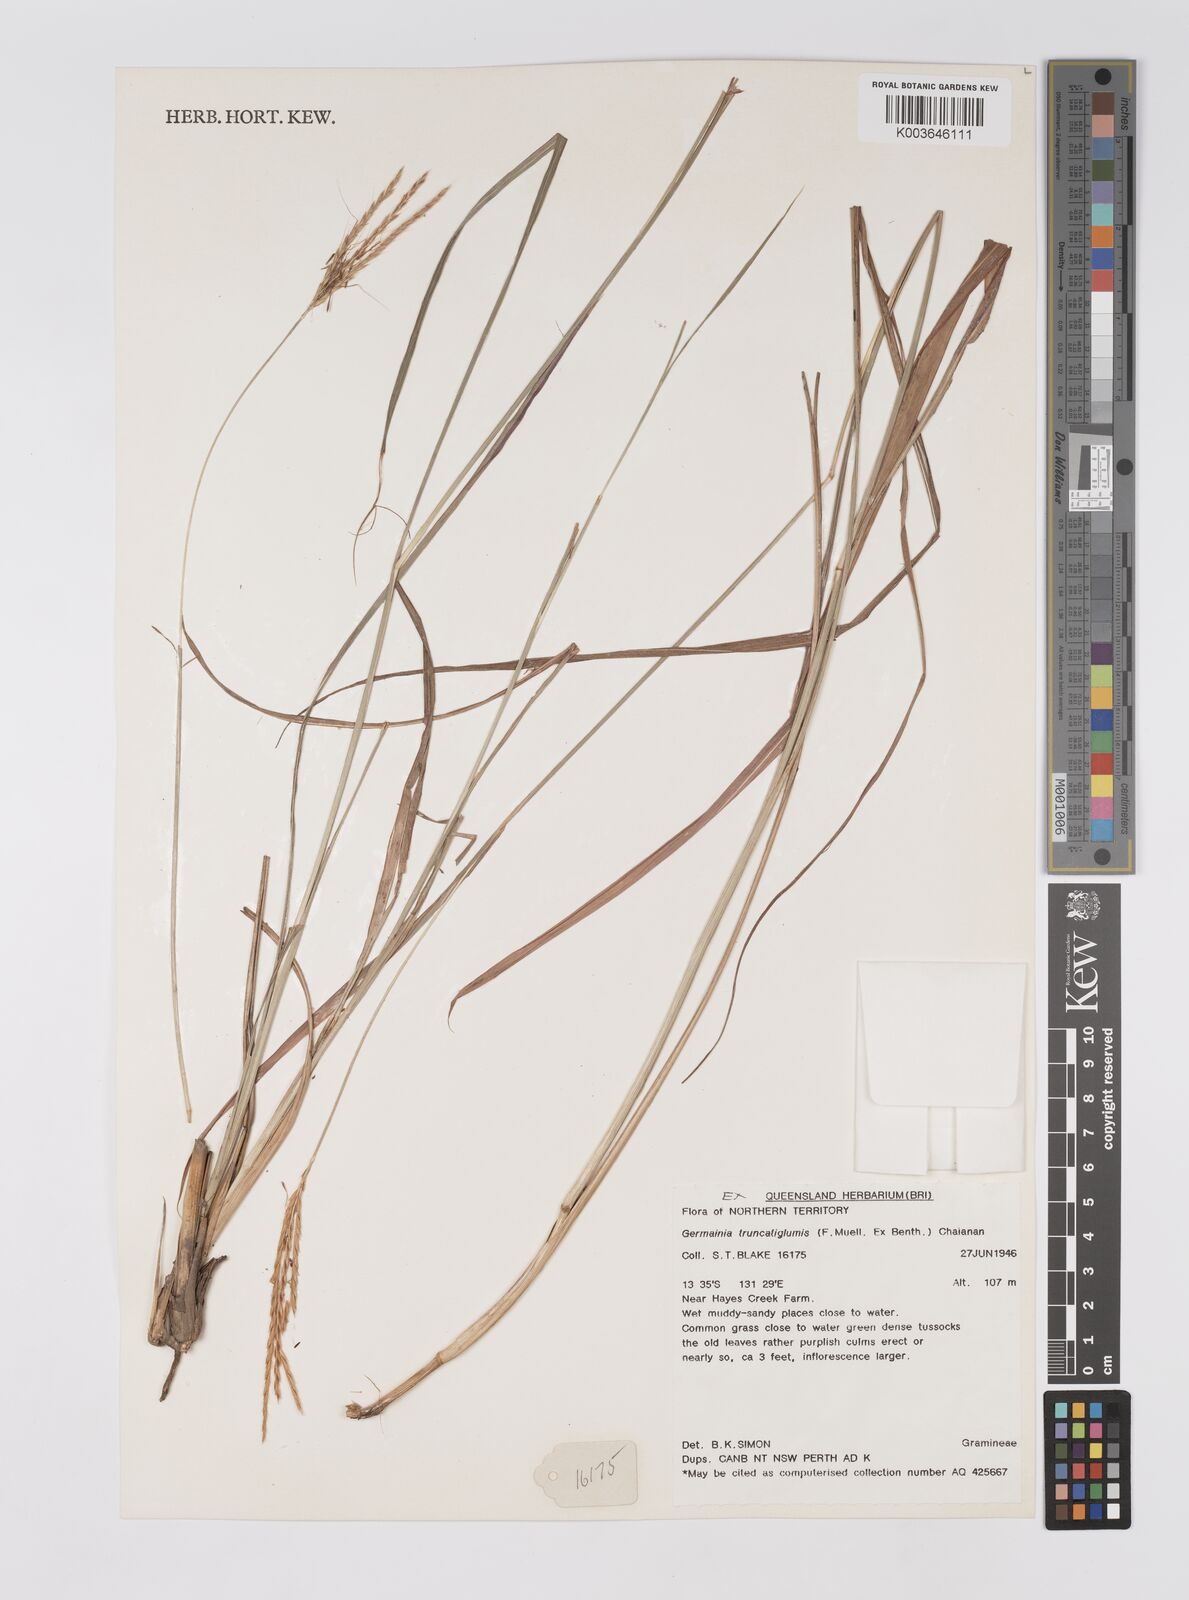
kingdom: Plantae
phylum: Tracheophyta
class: Liliopsida
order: Poales
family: Poaceae
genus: Germainia
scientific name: Germainia truncatiglumis
